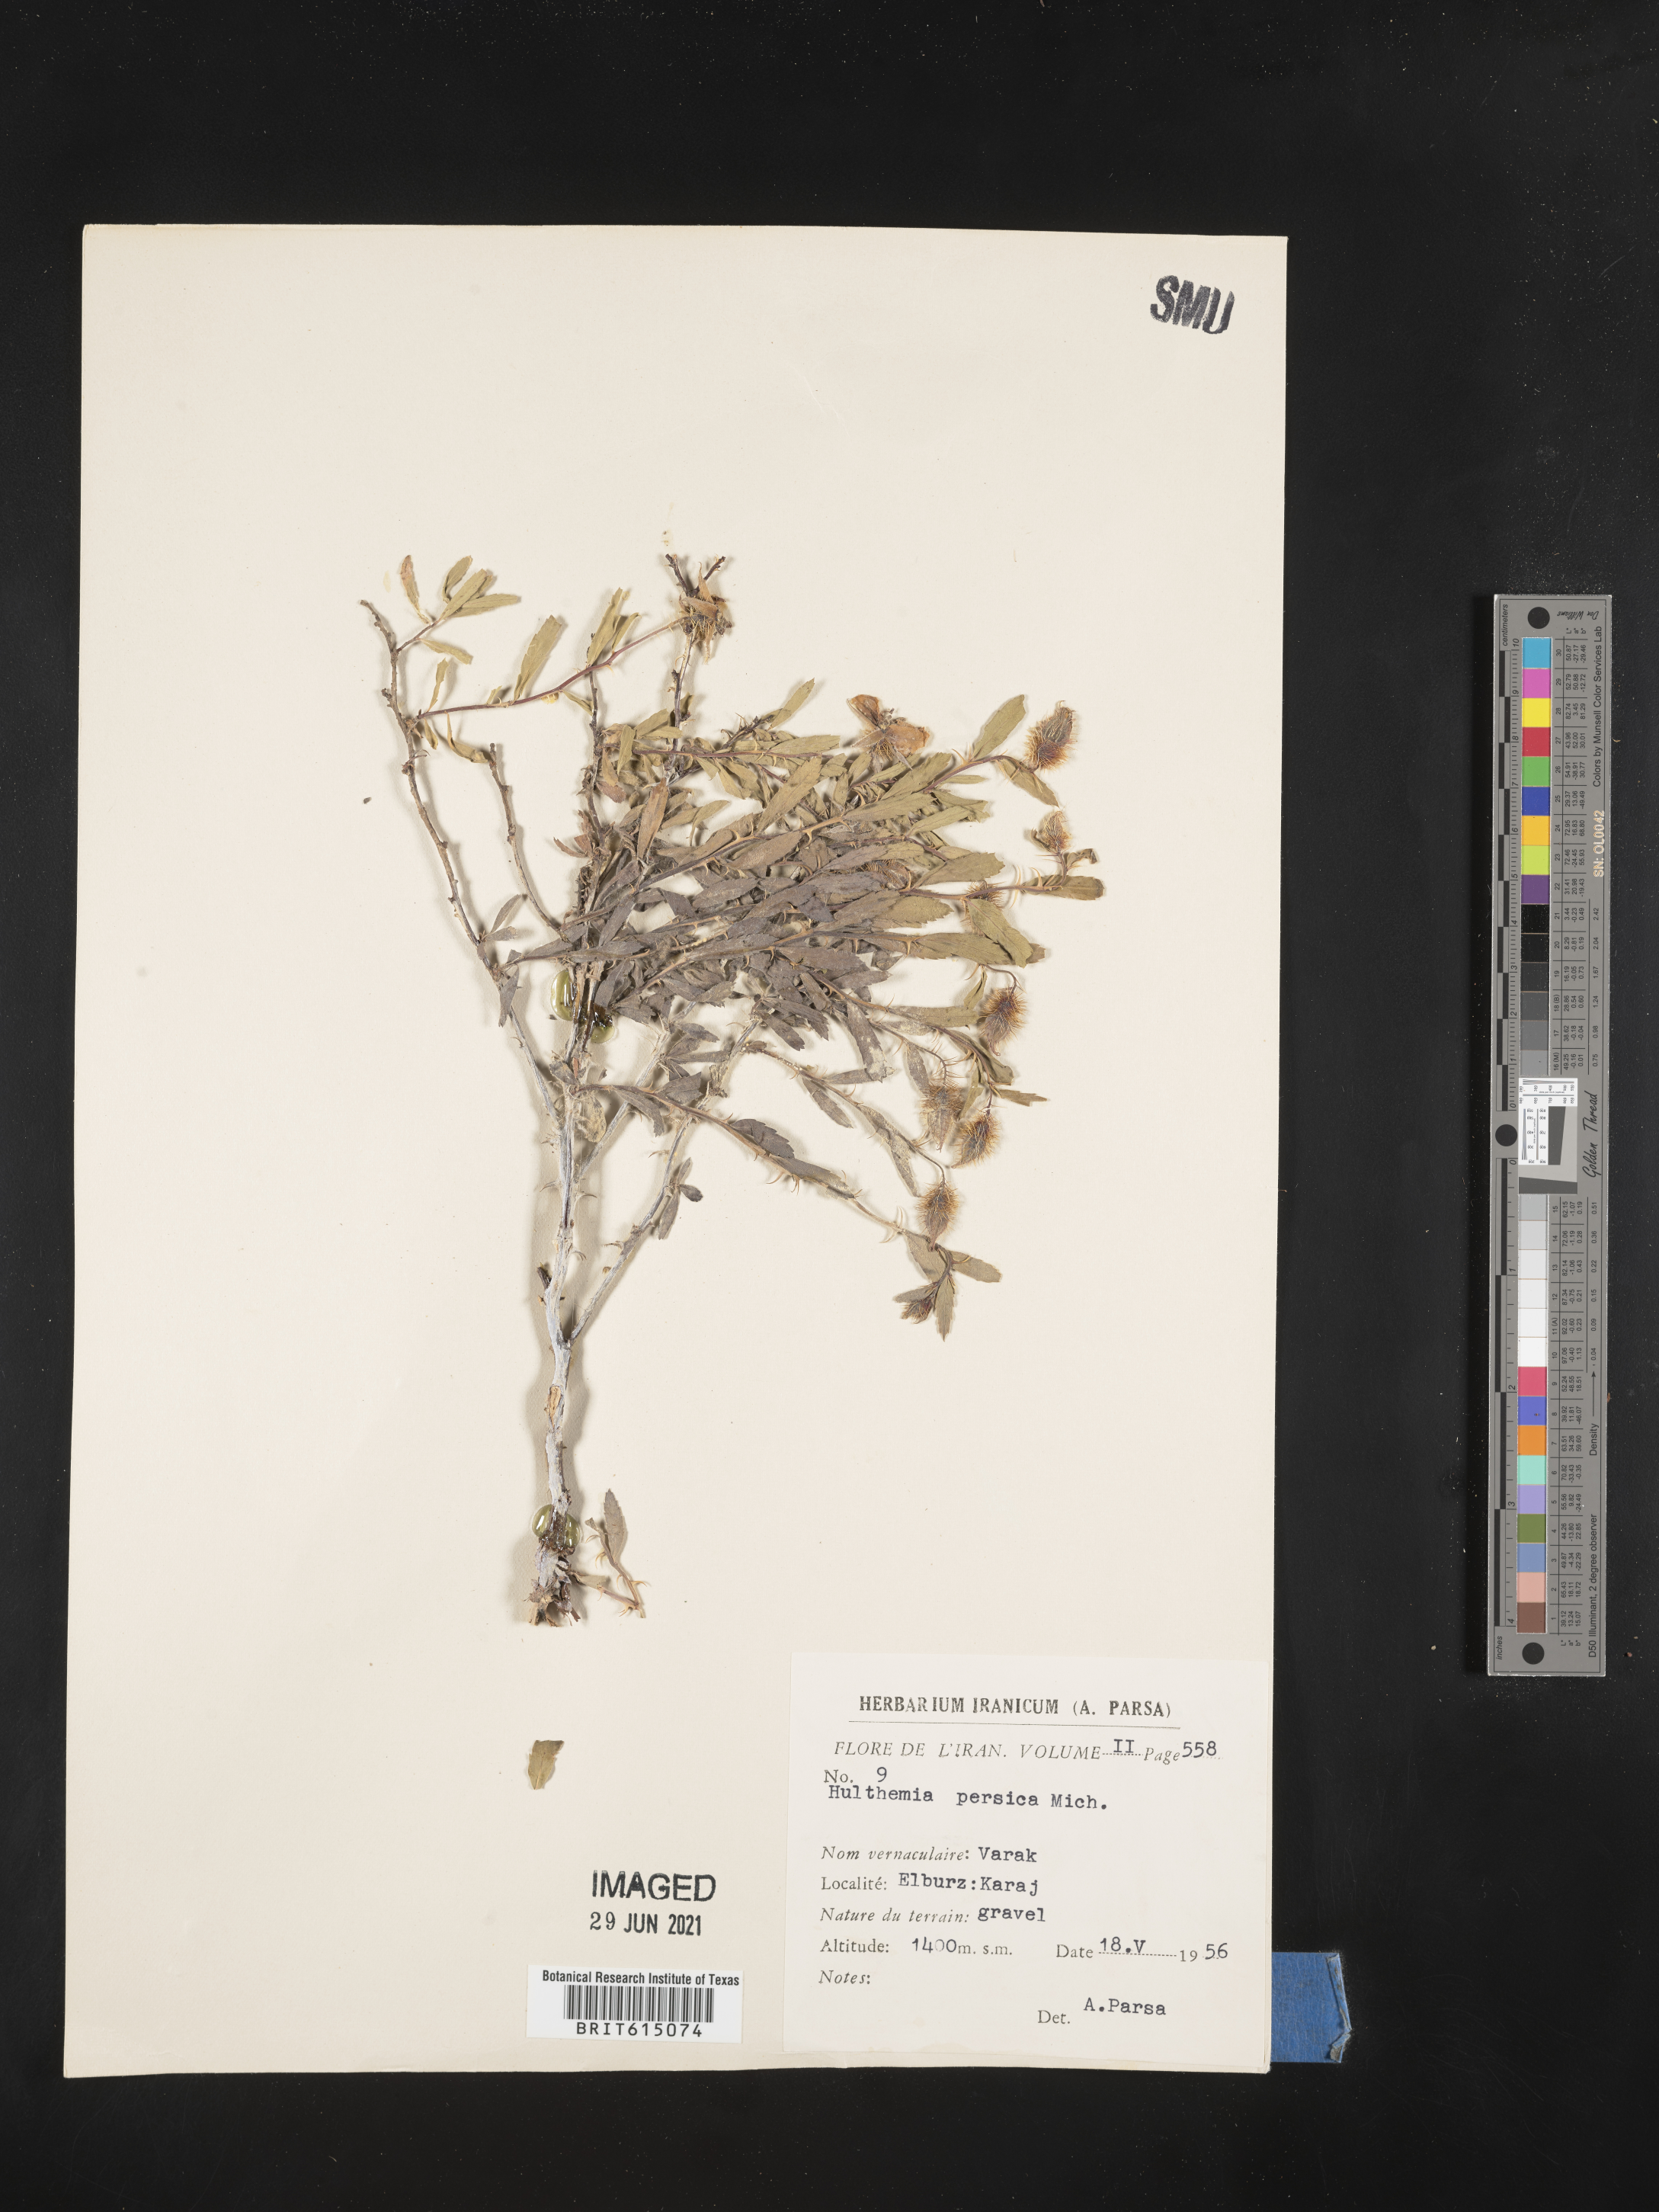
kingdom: Plantae
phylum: Tracheophyta
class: Magnoliopsida
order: Rosales
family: Rosaceae
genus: Rosa
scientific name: Rosa persica
